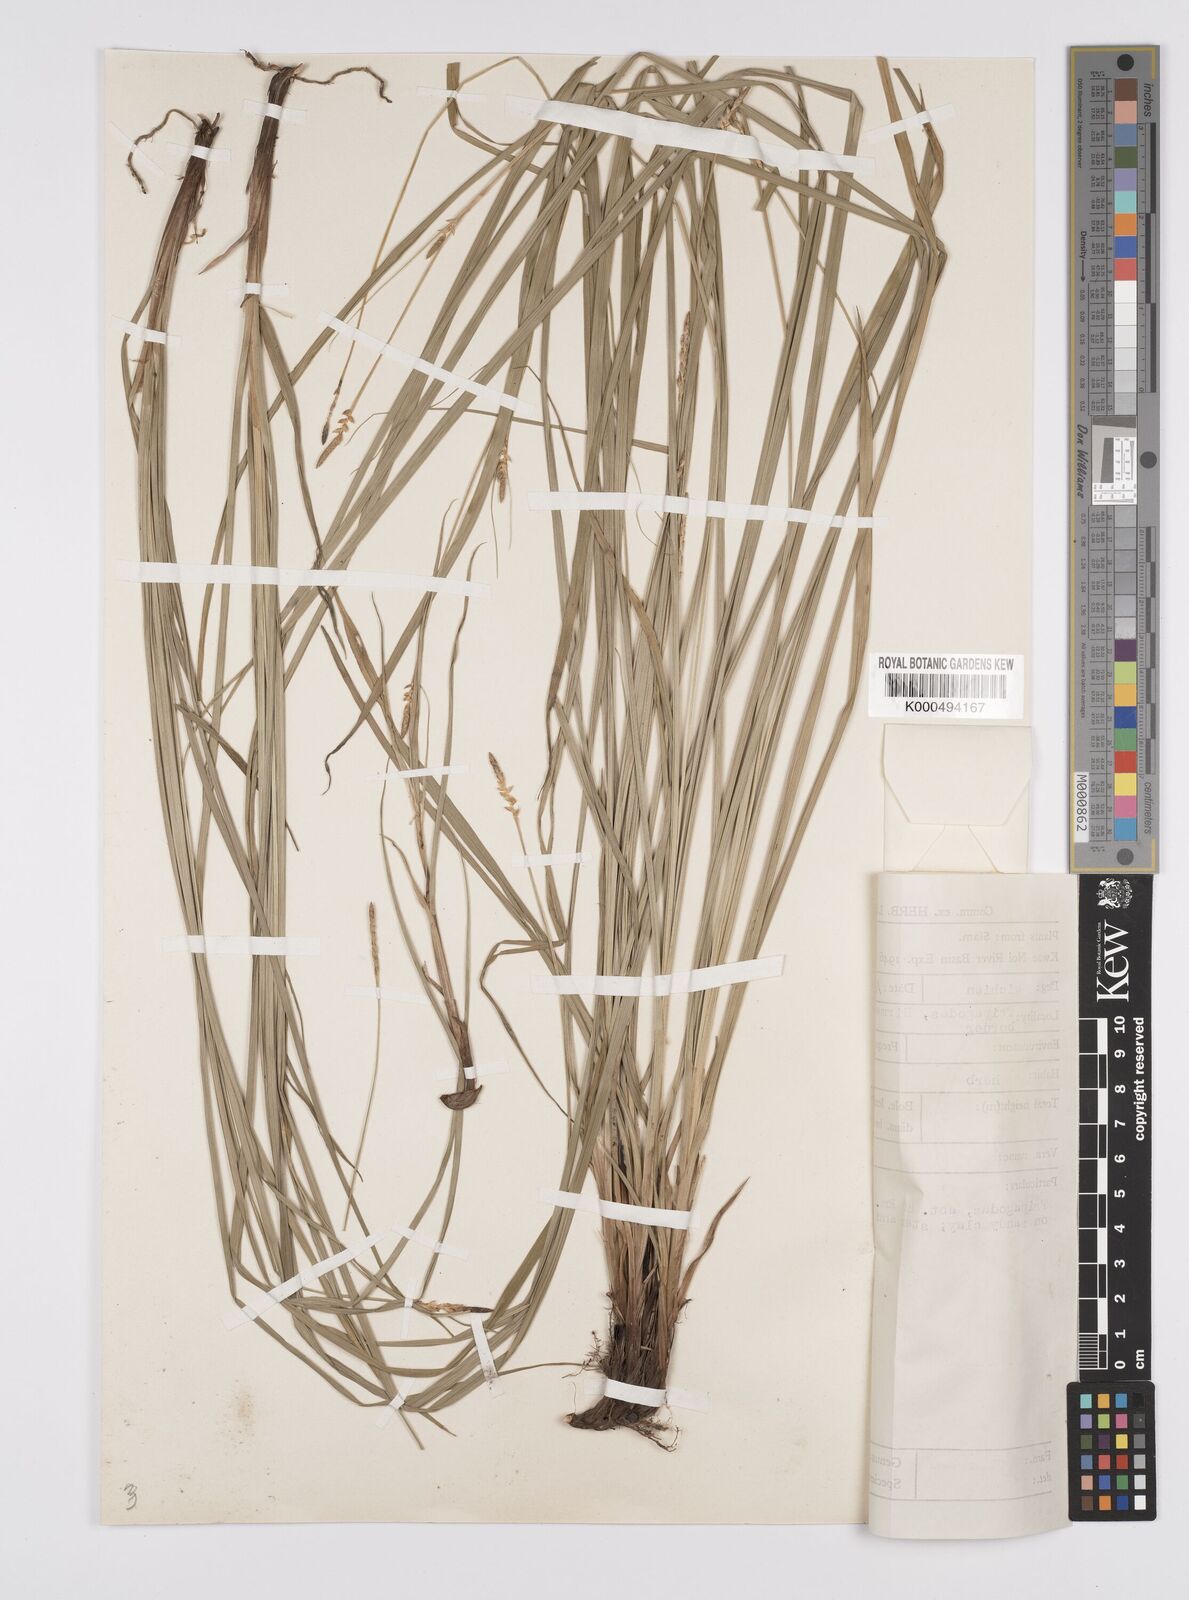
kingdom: Plantae
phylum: Tracheophyta
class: Liliopsida
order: Poales
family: Cyperaceae
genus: Carex
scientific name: Carex speciosa
